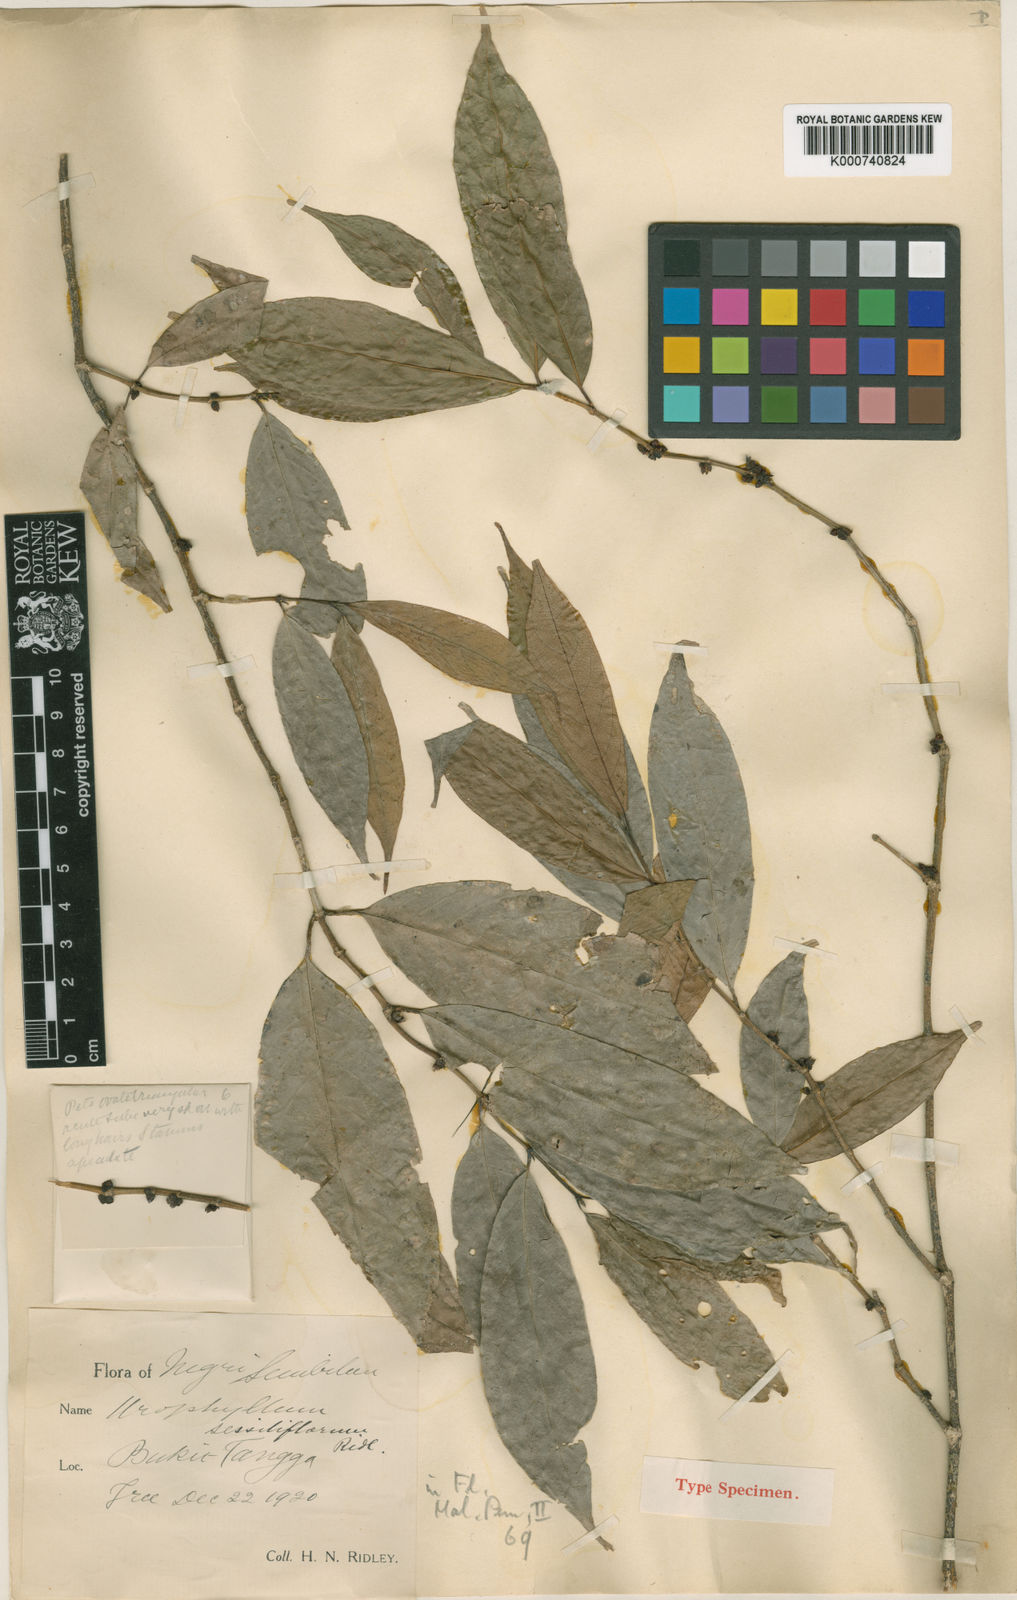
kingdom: Plantae
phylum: Tracheophyta
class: Magnoliopsida
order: Gentianales
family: Rubiaceae
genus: Urophyllum
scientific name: Urophyllum sessiliflorum
